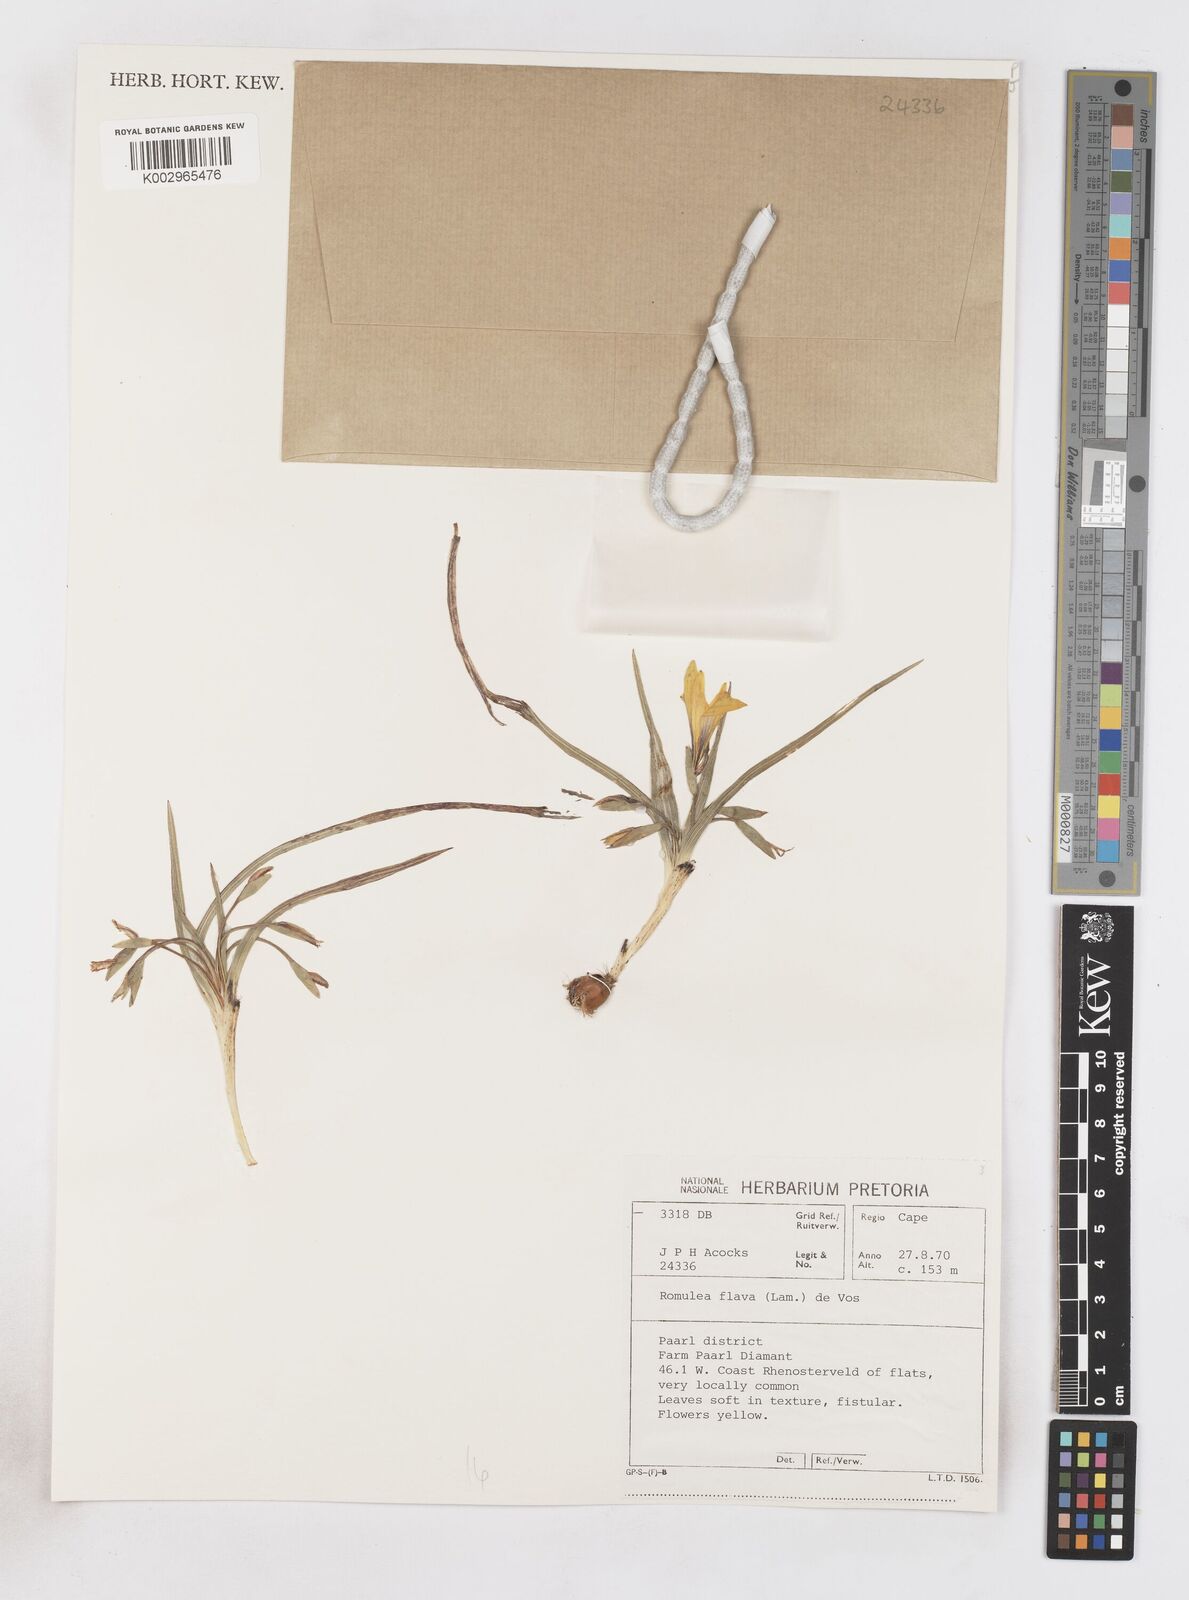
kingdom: Plantae
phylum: Tracheophyta
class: Liliopsida
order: Asparagales
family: Iridaceae
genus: Romulea
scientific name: Romulea flava
